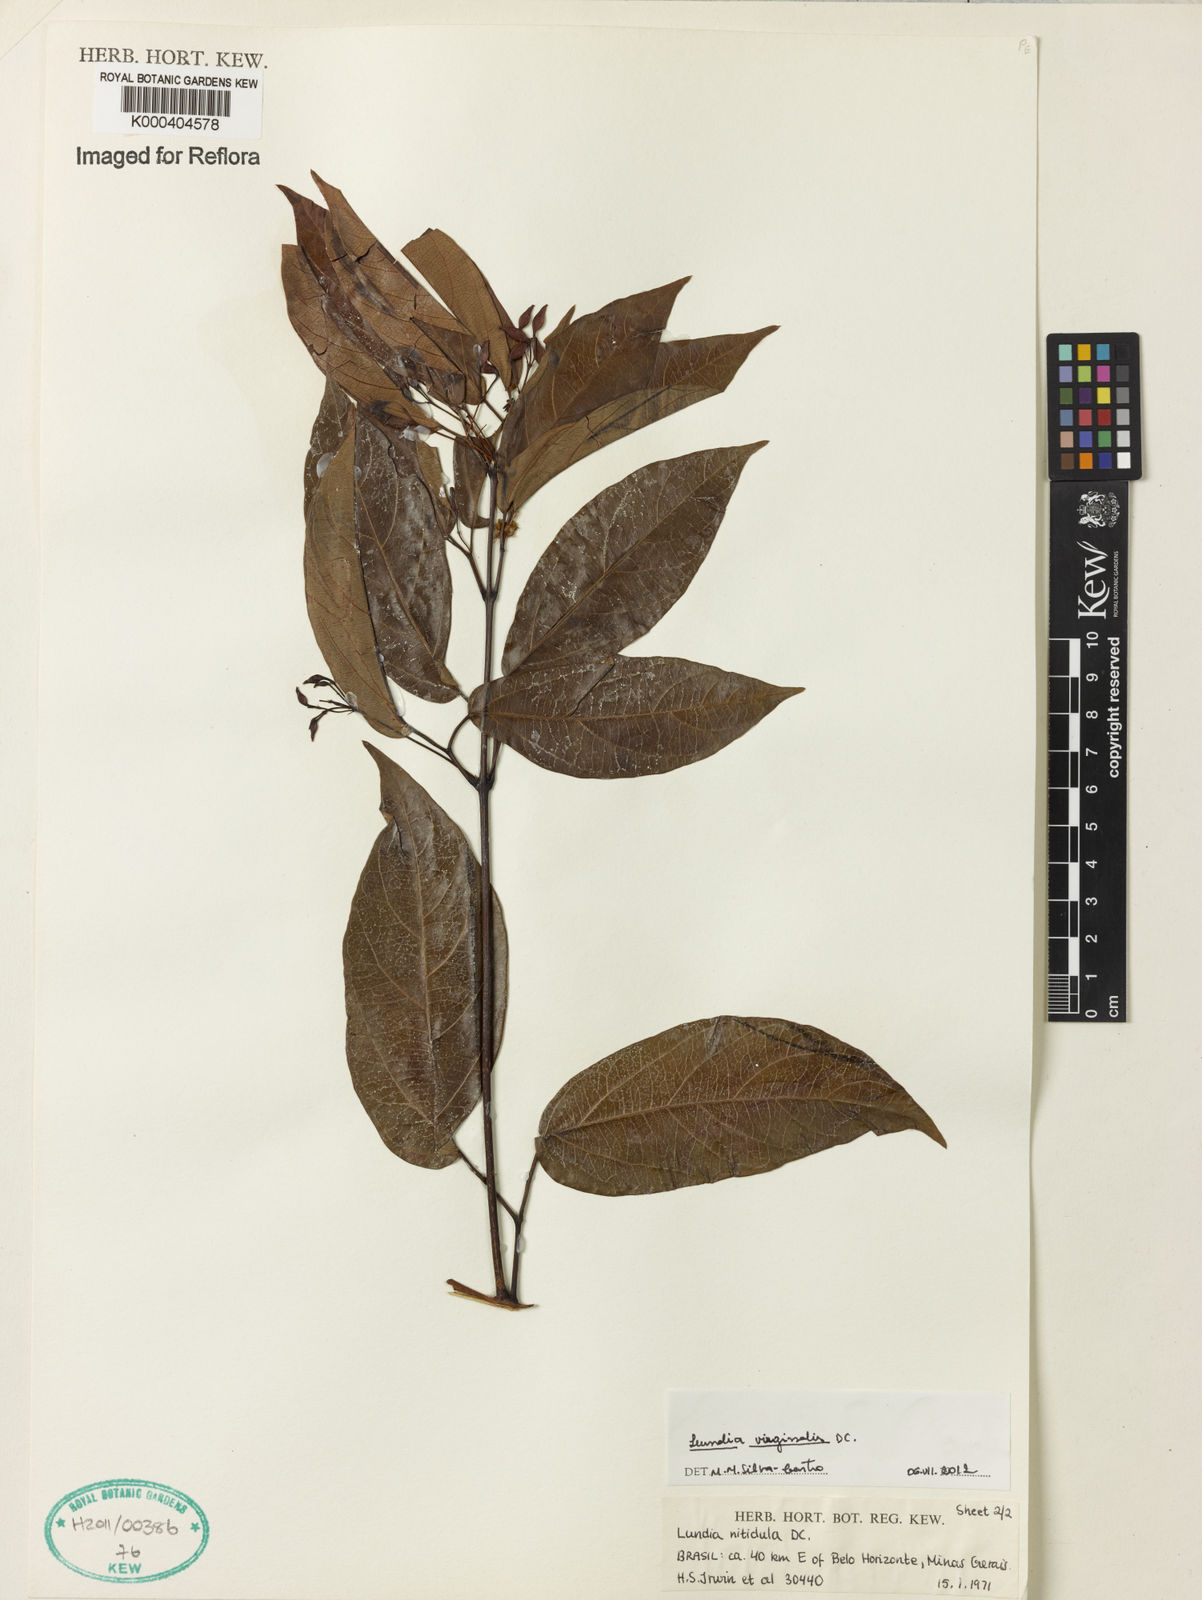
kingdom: Plantae
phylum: Tracheophyta
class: Magnoliopsida
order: Lamiales
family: Bignoniaceae
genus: Lundia
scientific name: Lundia virginalis
